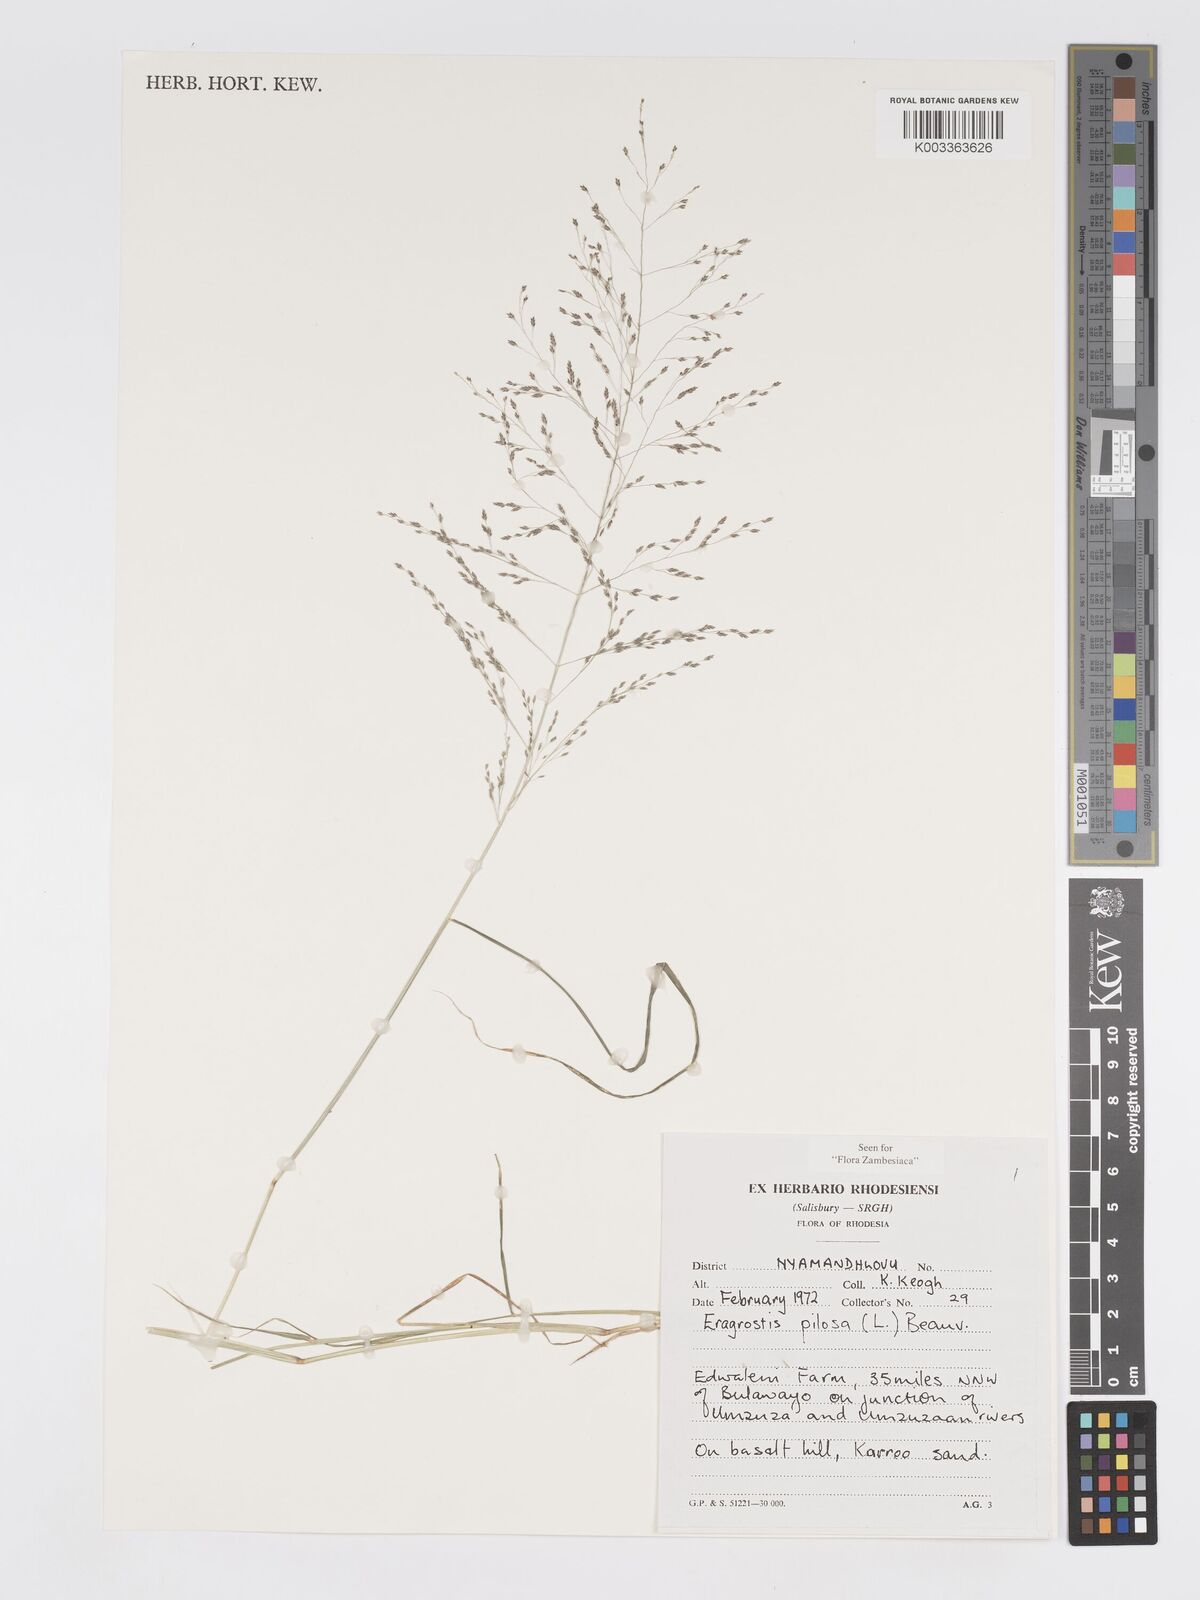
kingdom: Plantae
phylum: Tracheophyta
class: Liliopsida
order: Poales
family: Poaceae
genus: Eragrostis
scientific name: Eragrostis welwitschii
